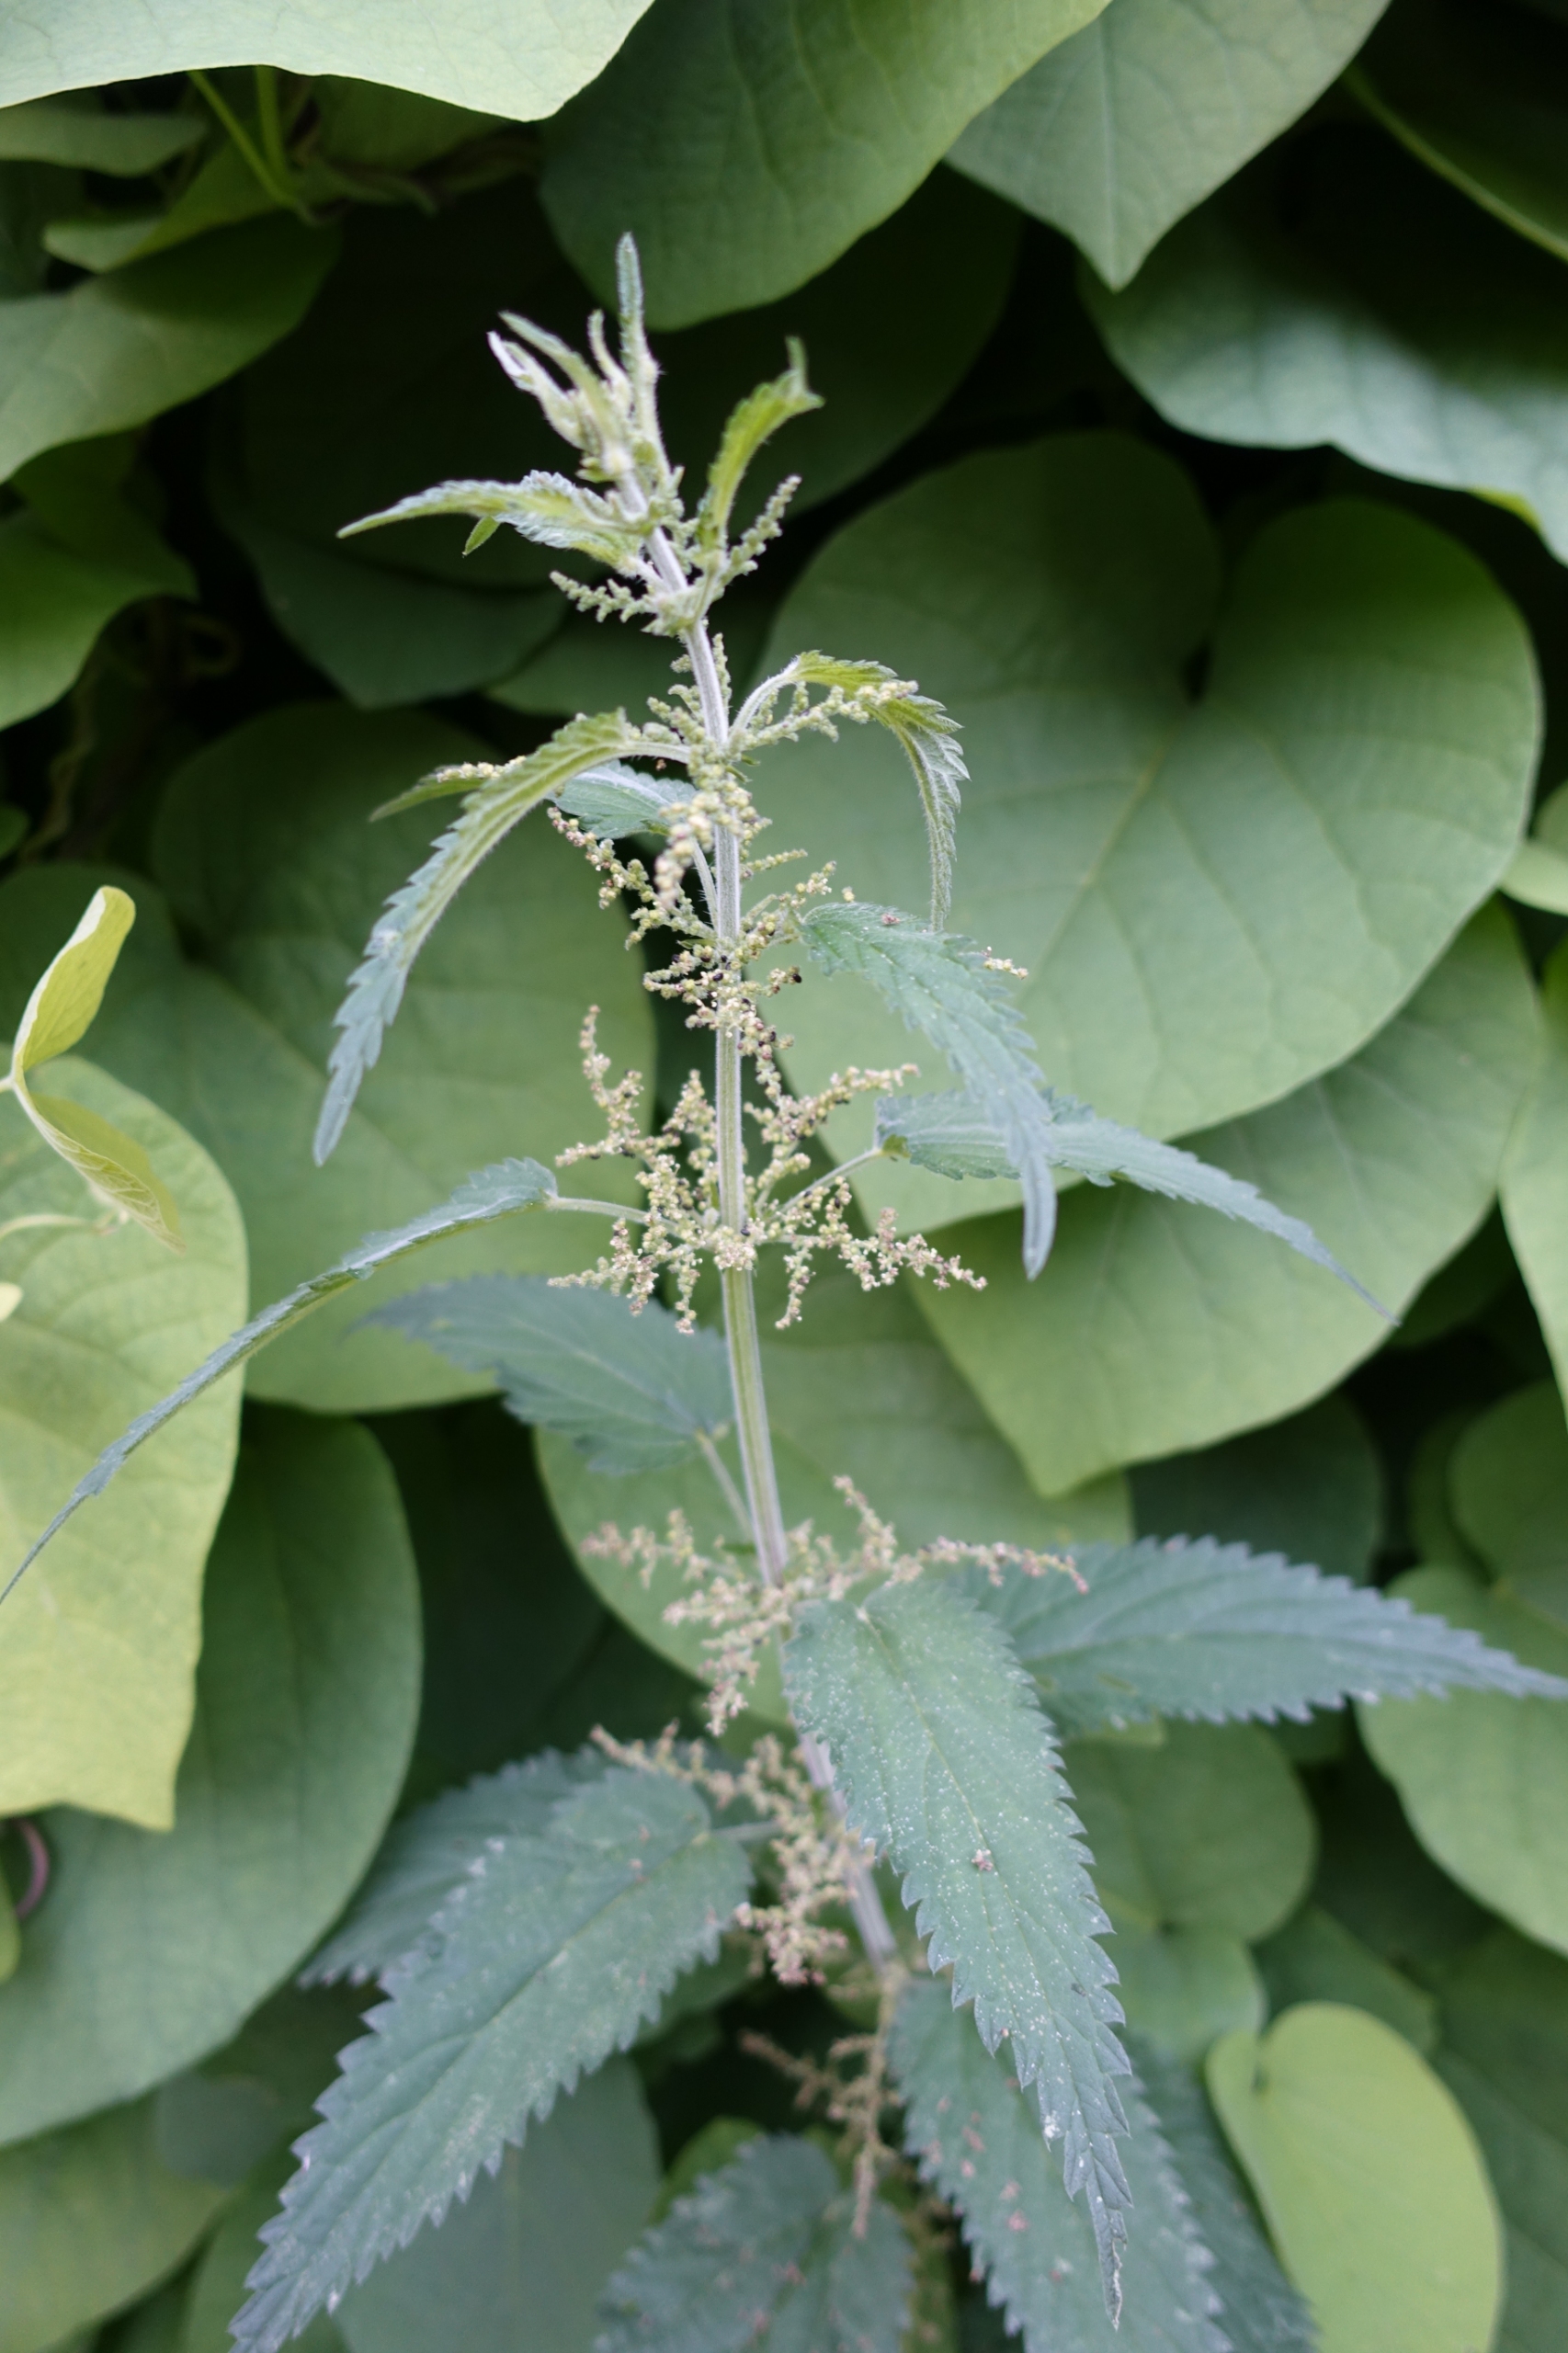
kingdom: Plantae
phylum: Tracheophyta
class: Magnoliopsida
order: Rosales
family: Urticaceae
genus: Urtica
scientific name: Urtica dioica
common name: Stor nælde
